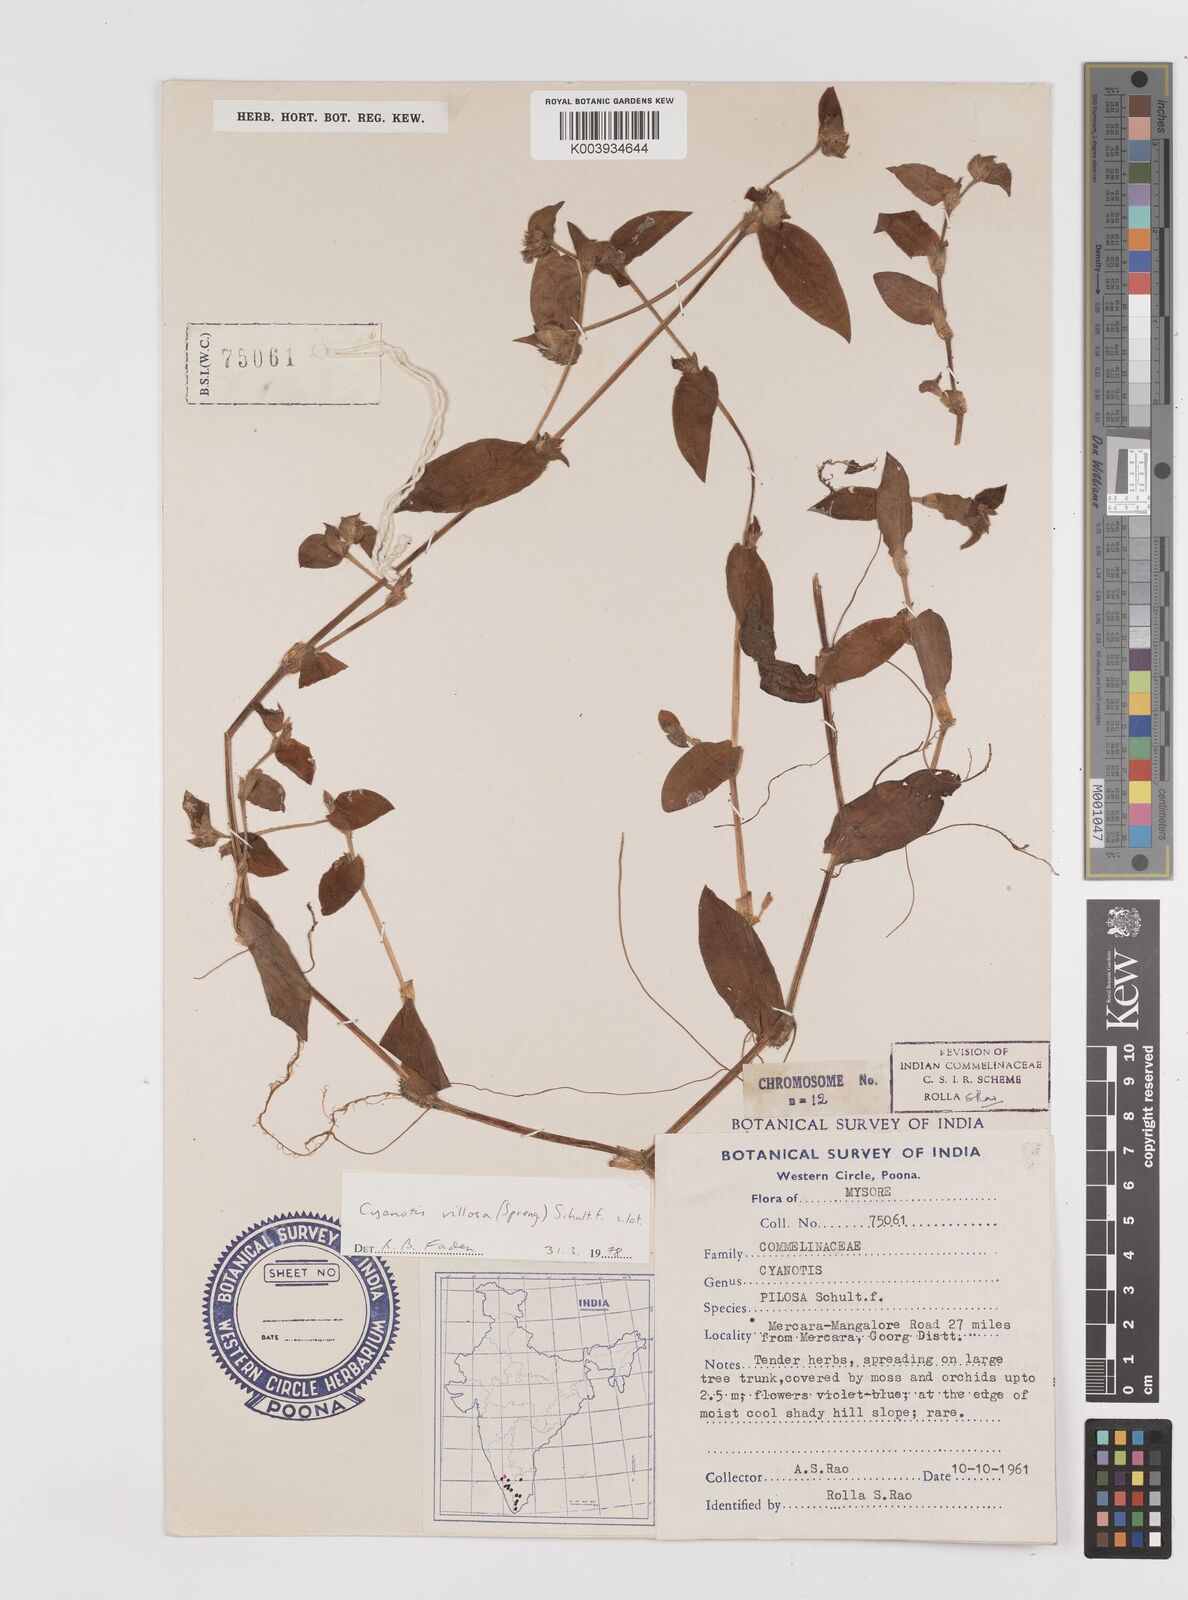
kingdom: Plantae
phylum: Tracheophyta
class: Liliopsida
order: Commelinales
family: Commelinaceae
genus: Cyanotis
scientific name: Cyanotis villosa
